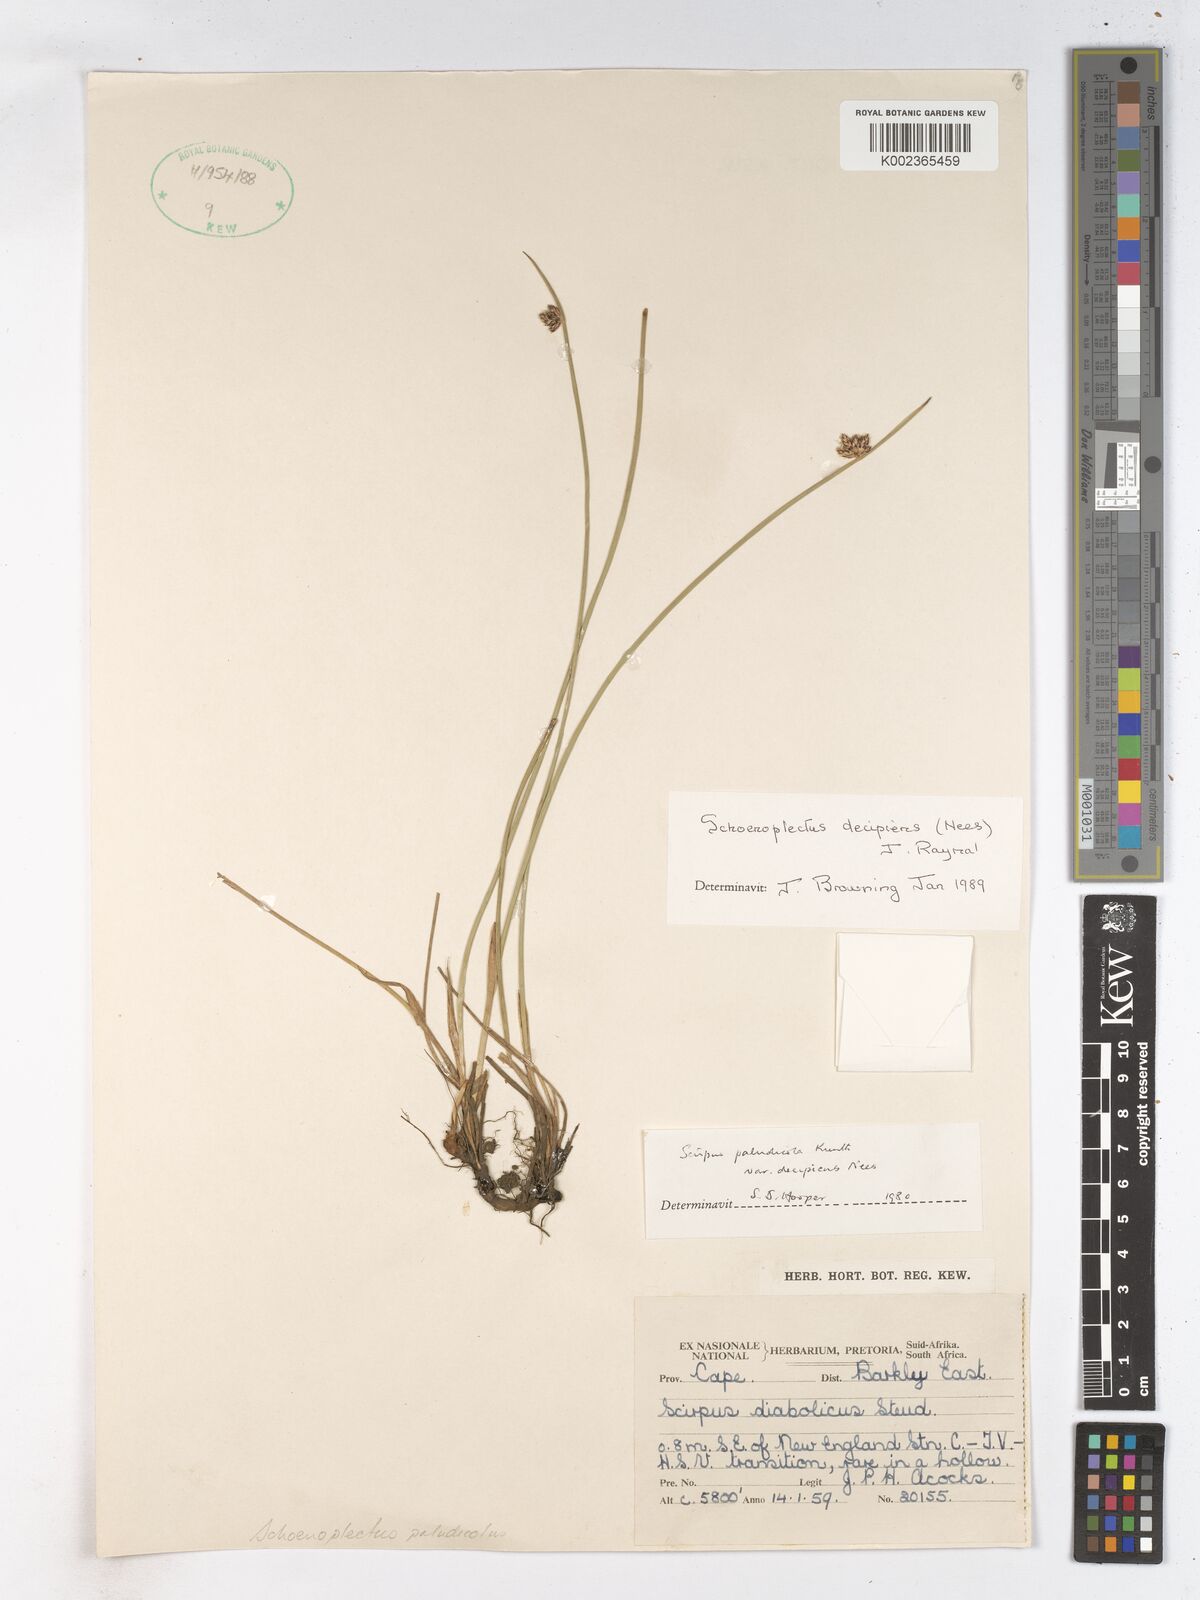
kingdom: Plantae
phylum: Tracheophyta
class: Liliopsida
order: Poales
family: Cyperaceae
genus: Schoenoplectiella
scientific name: Schoenoplectiella paludicola
